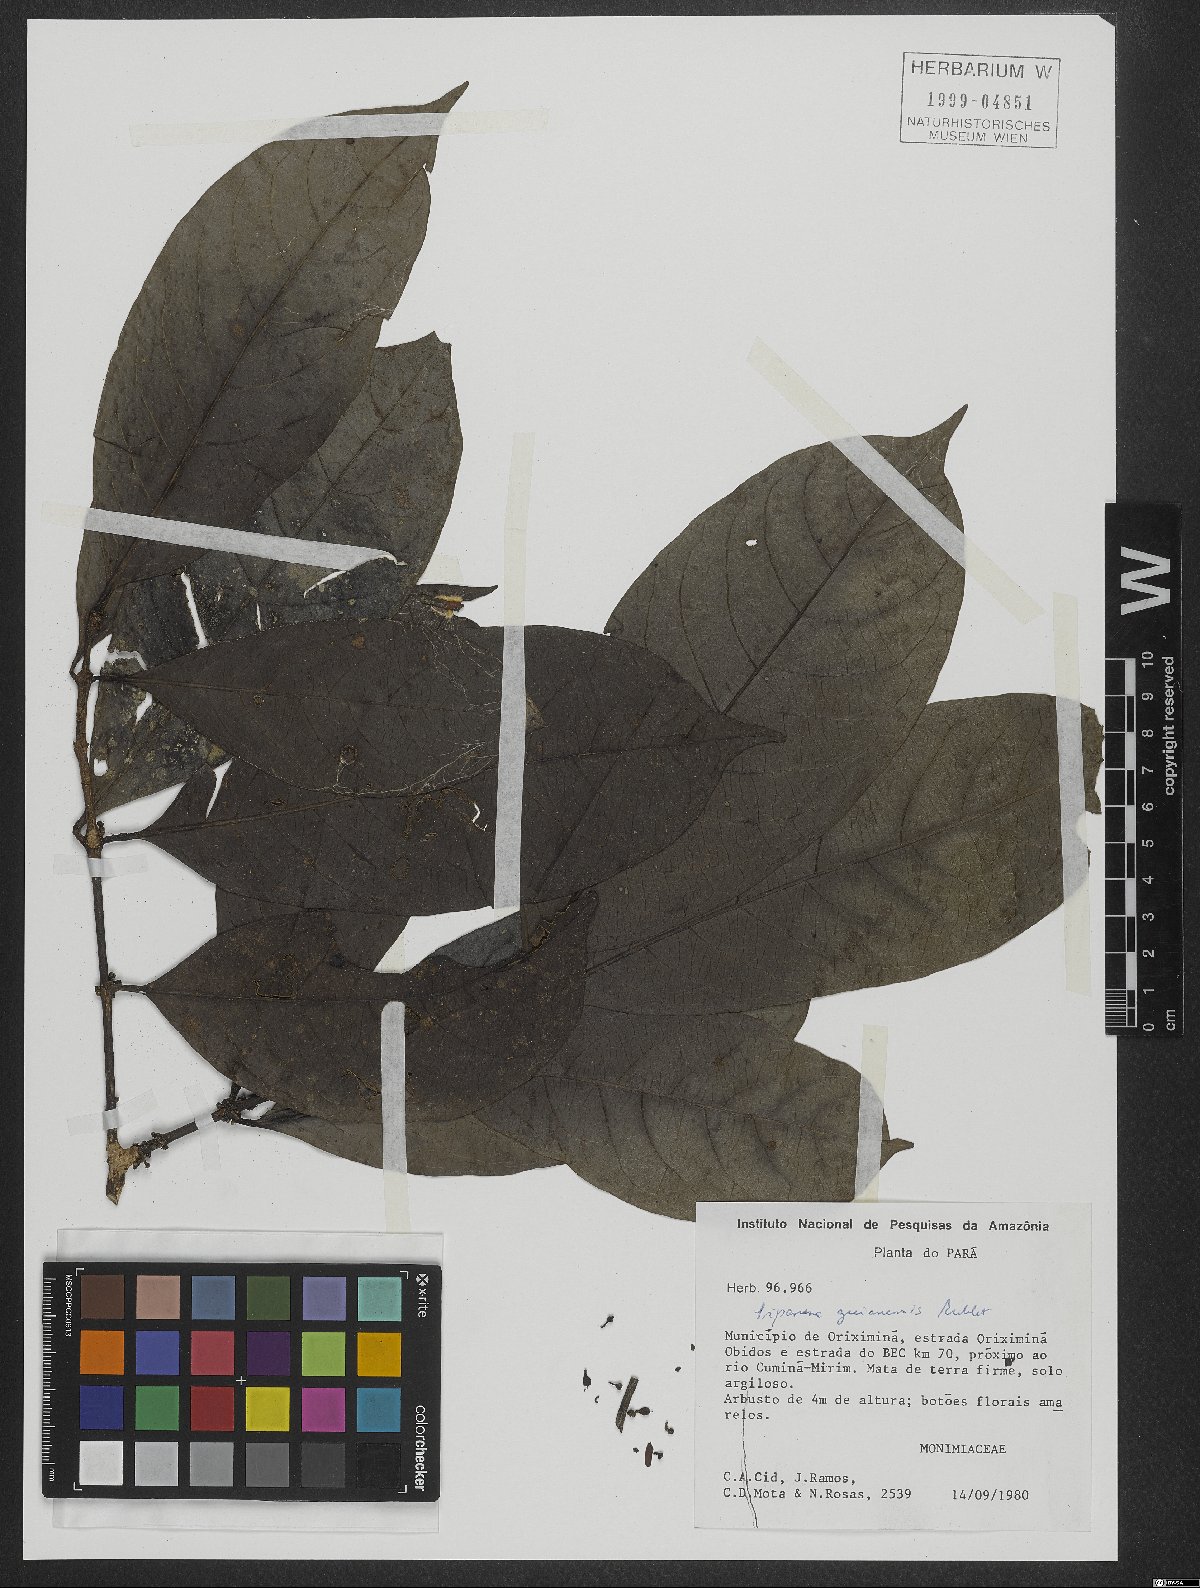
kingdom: Plantae
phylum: Tracheophyta
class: Magnoliopsida
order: Laurales
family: Siparunaceae
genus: Siparuna
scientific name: Siparuna guianensis
